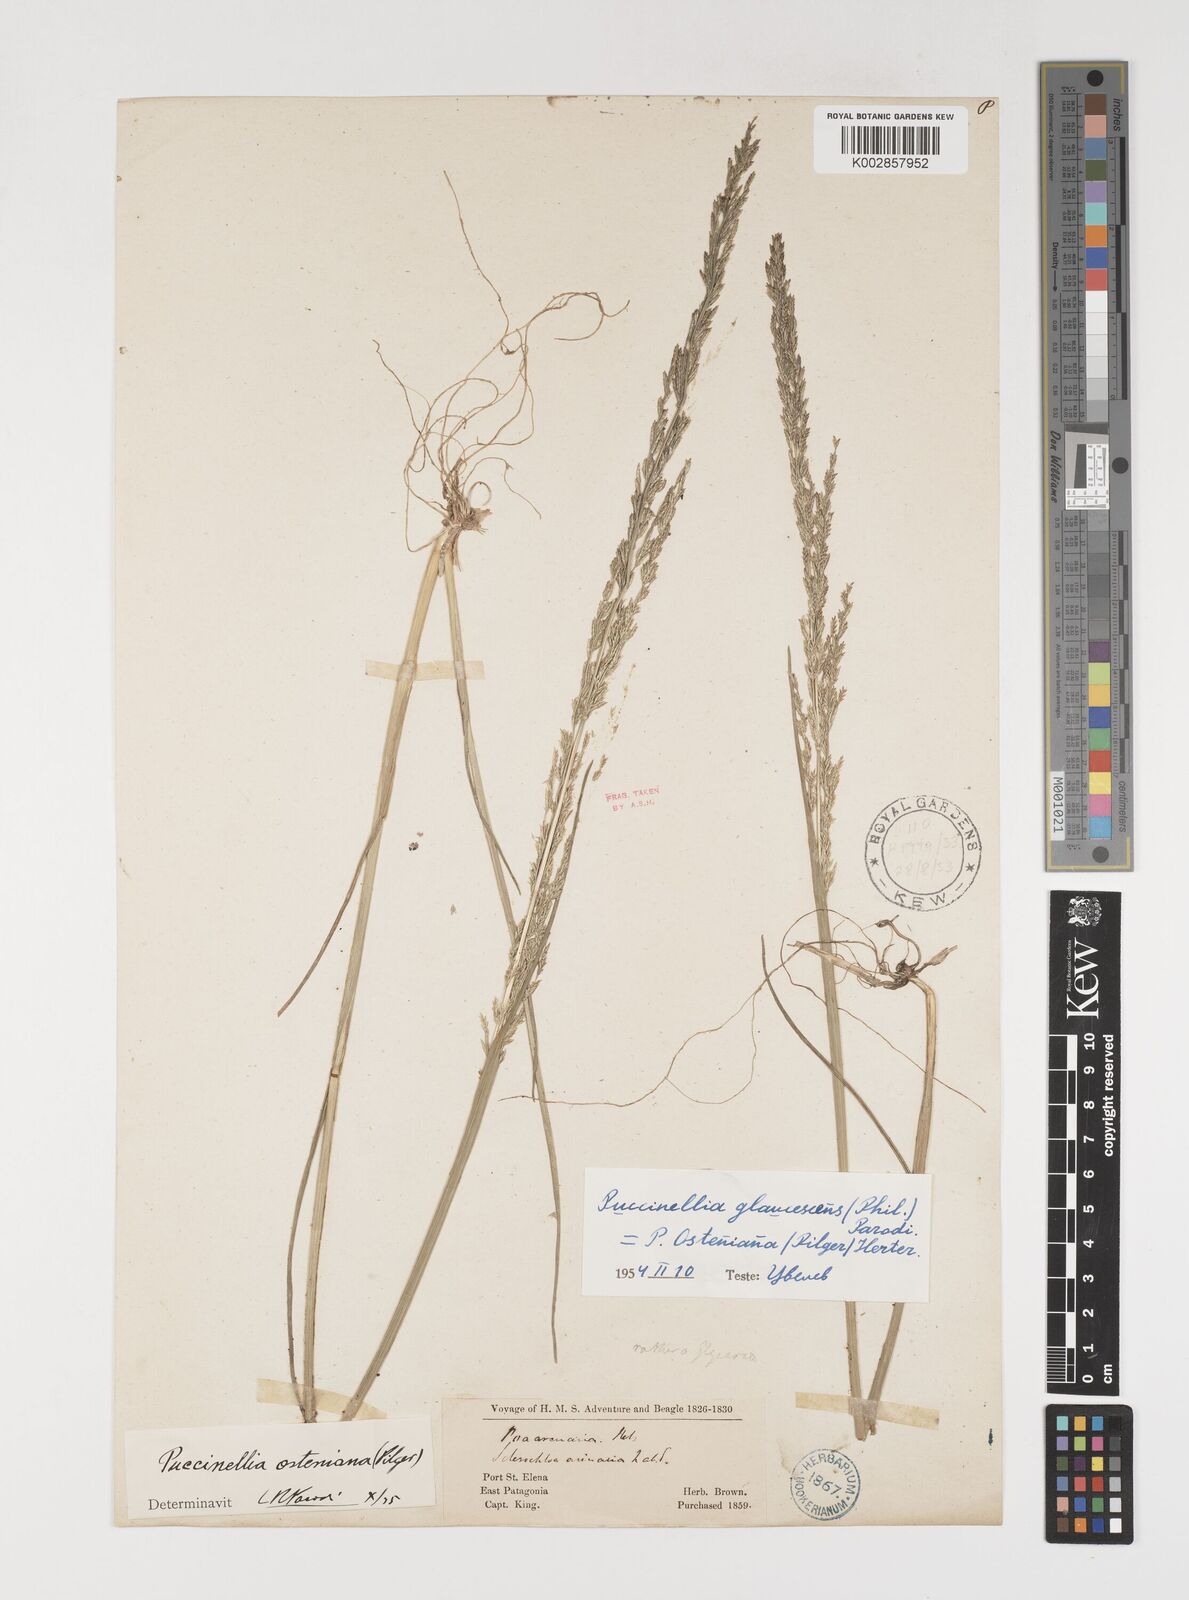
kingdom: Plantae
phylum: Tracheophyta
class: Liliopsida
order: Poales
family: Poaceae
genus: Puccinellia
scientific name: Puccinellia glaucescens
